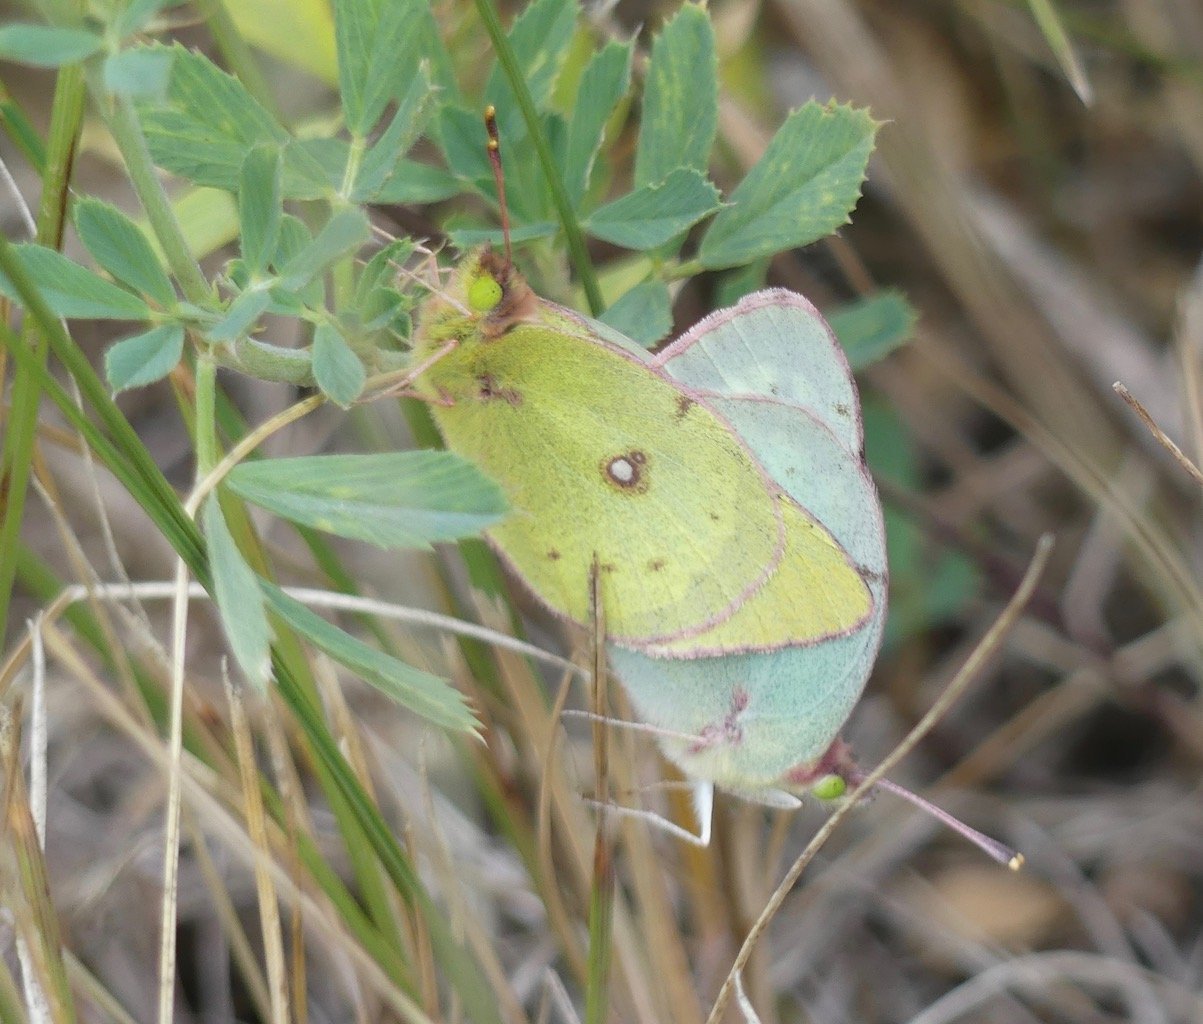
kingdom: Animalia
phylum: Arthropoda
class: Insecta
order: Lepidoptera
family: Pieridae
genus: Colias
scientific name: Colias philodice
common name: Clouded Sulphur
